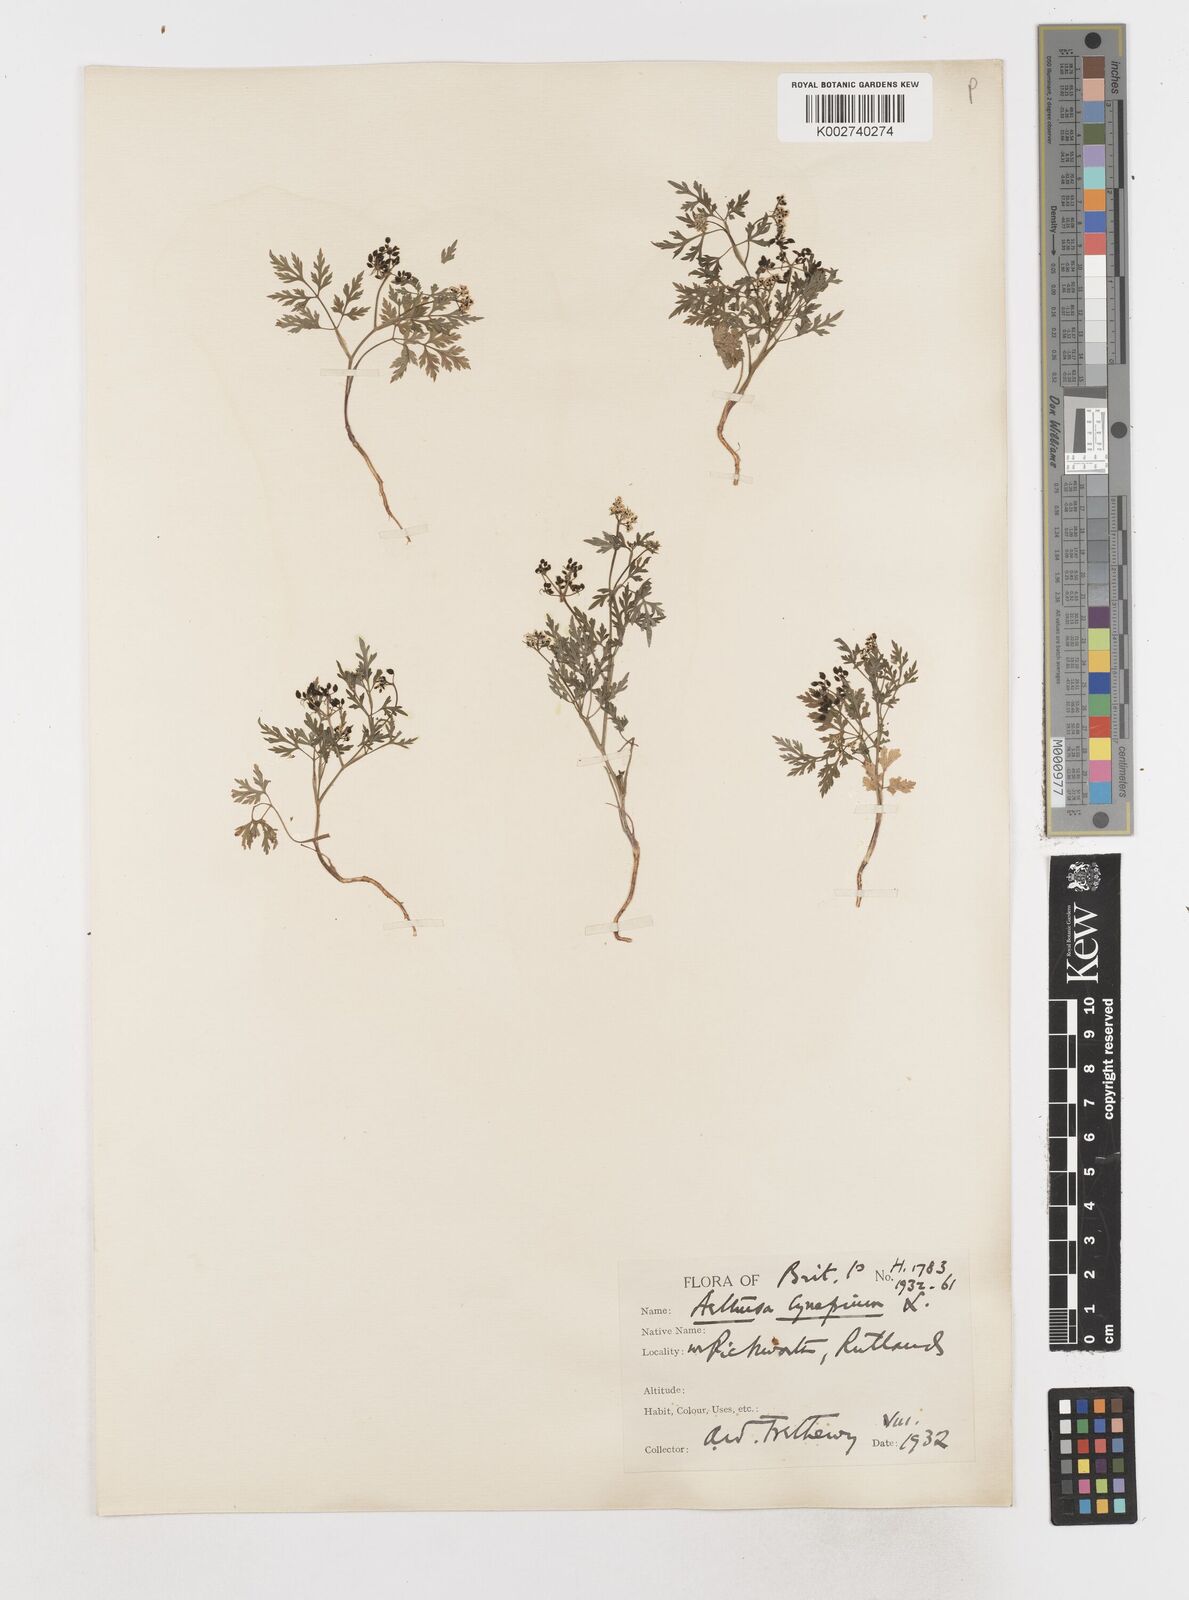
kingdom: Plantae
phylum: Tracheophyta
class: Magnoliopsida
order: Apiales
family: Apiaceae
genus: Aethusa
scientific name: Aethusa cynapium
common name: Fool's parsley
